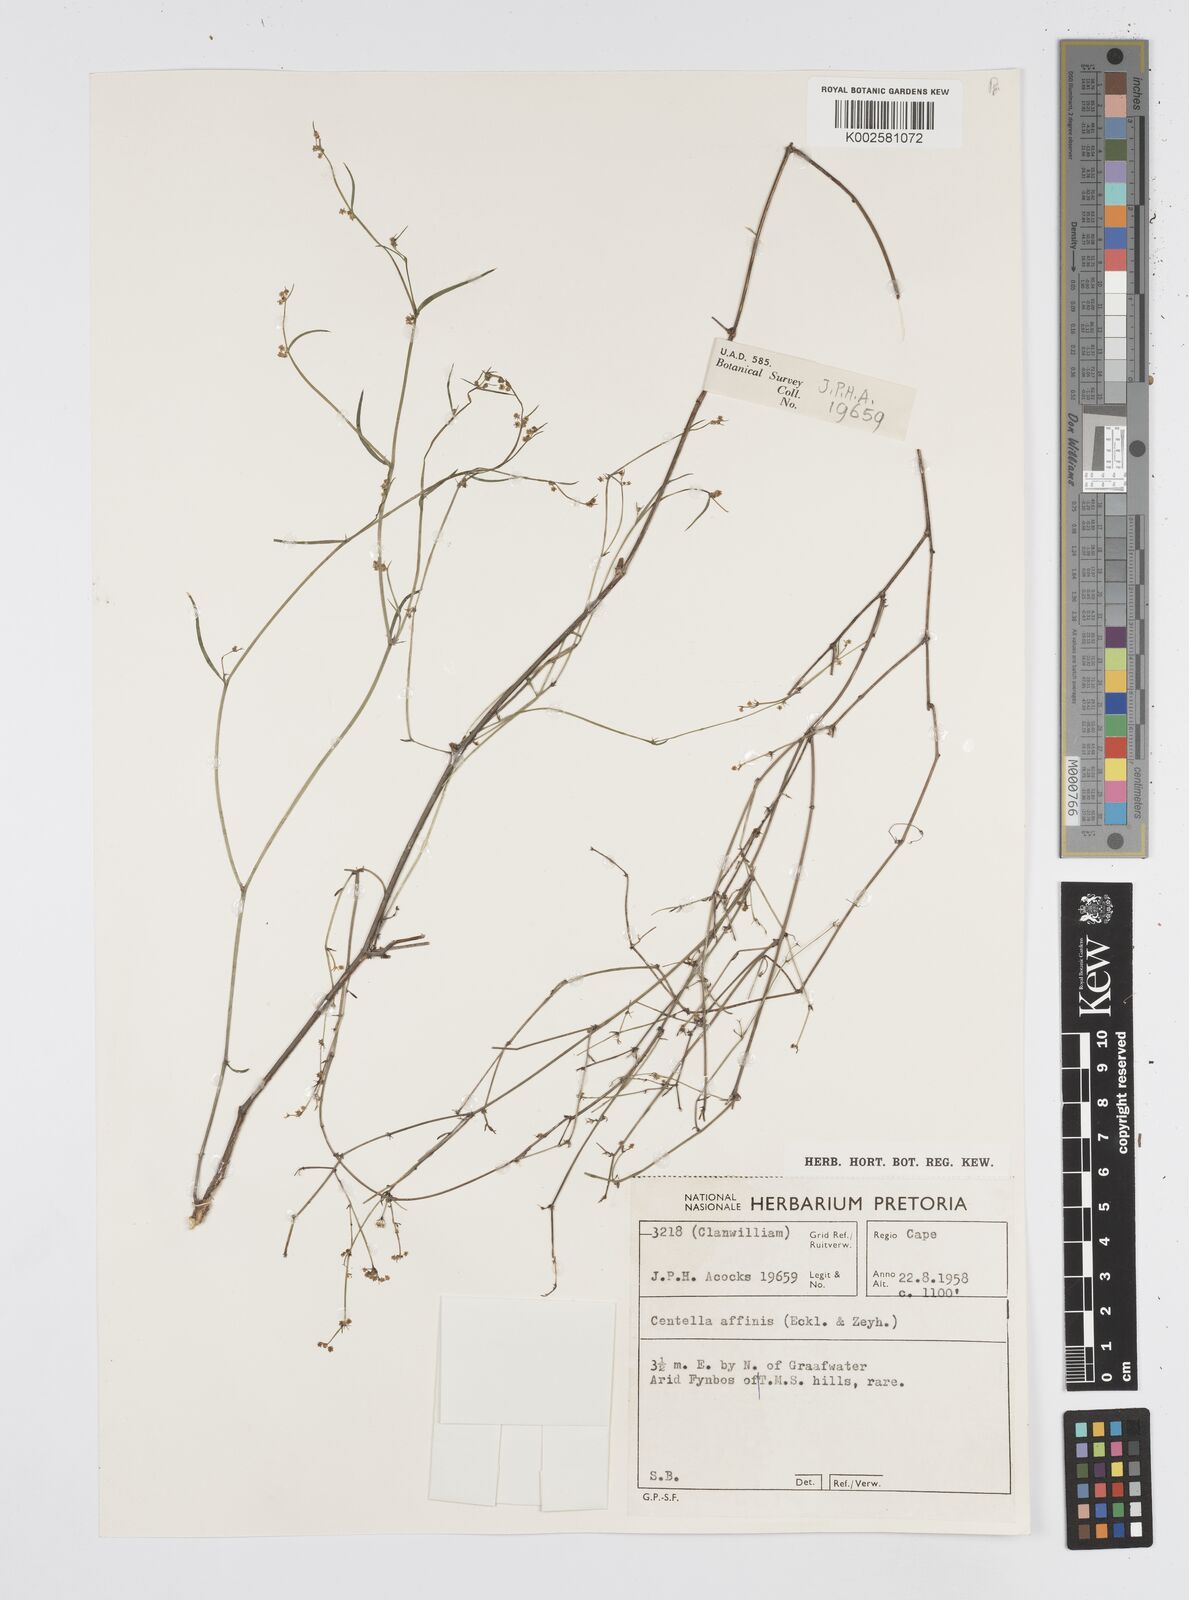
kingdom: Plantae
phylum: Tracheophyta
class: Magnoliopsida
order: Apiales
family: Apiaceae
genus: Centella
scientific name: Centella affinis
